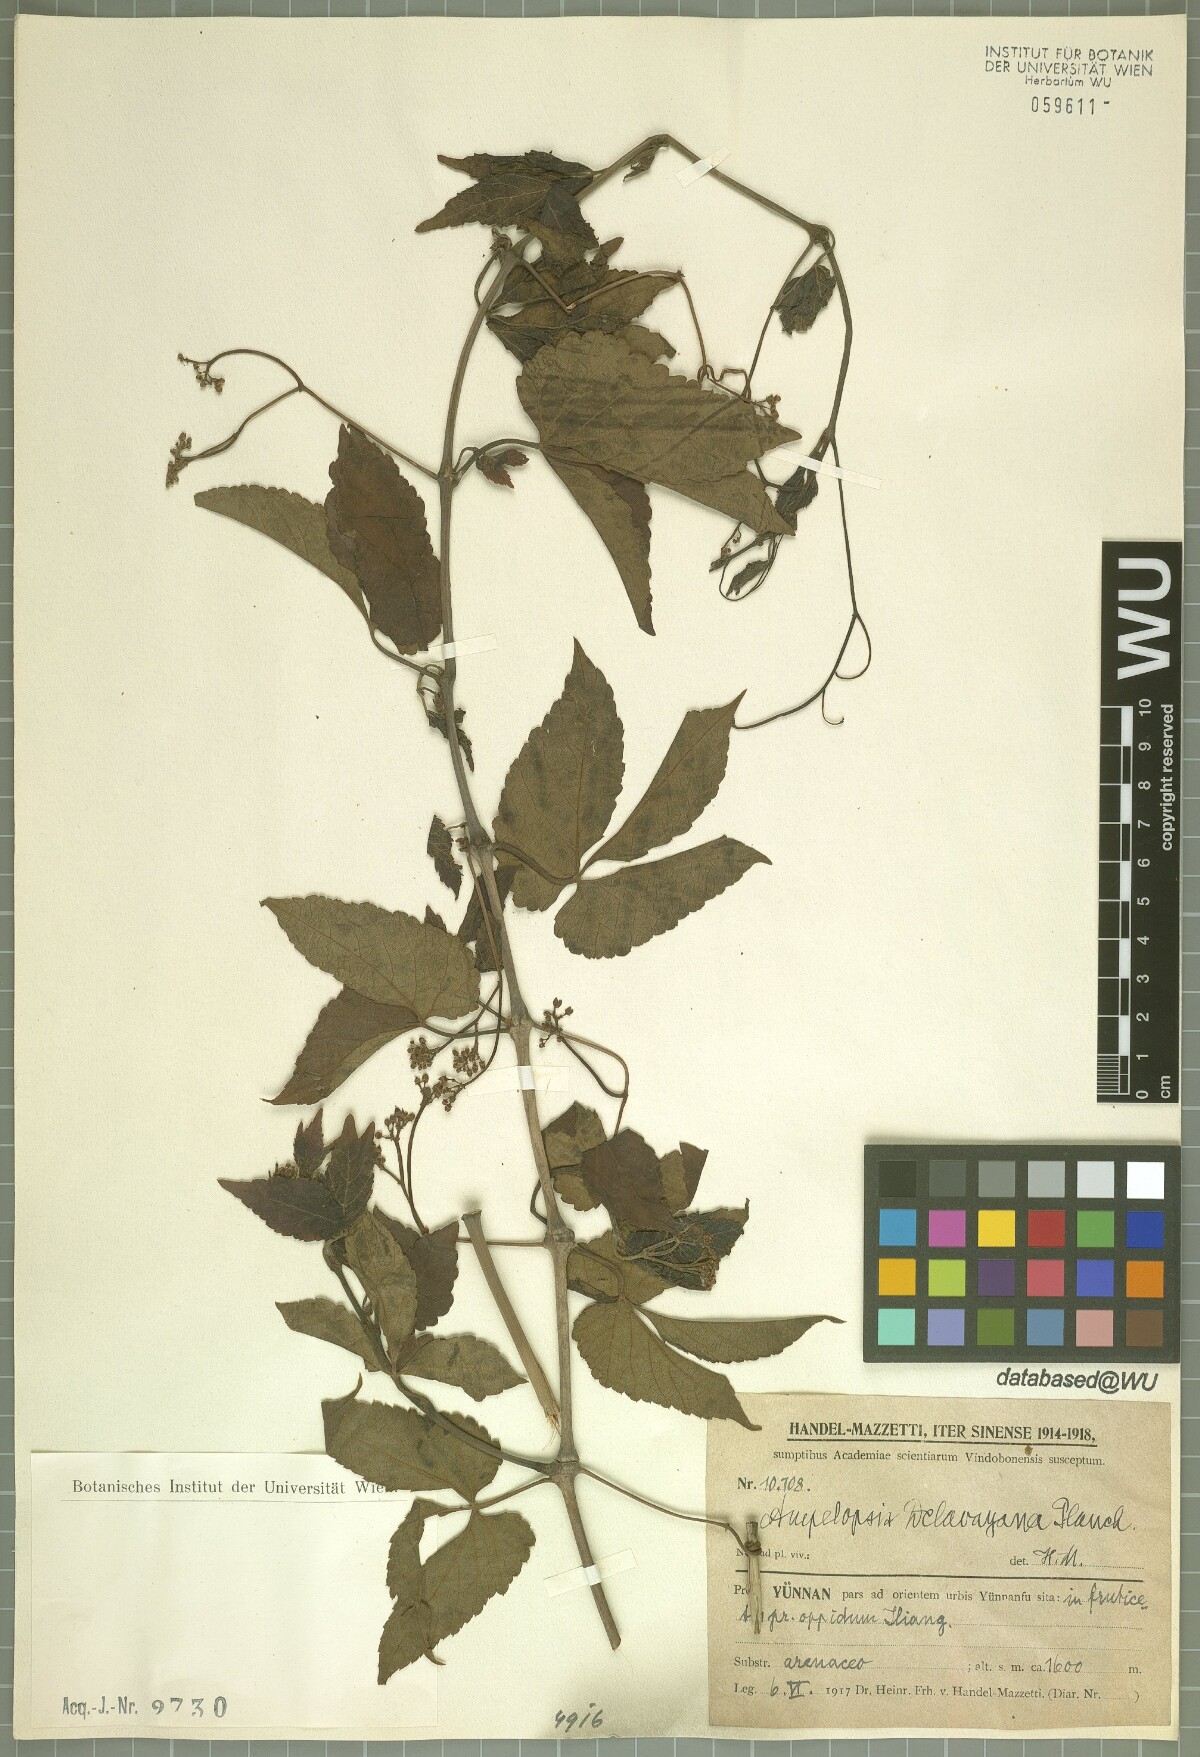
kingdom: Plantae
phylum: Tracheophyta
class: Magnoliopsida
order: Vitales
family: Vitaceae
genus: Ampelopsis
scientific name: Ampelopsis delavayana
